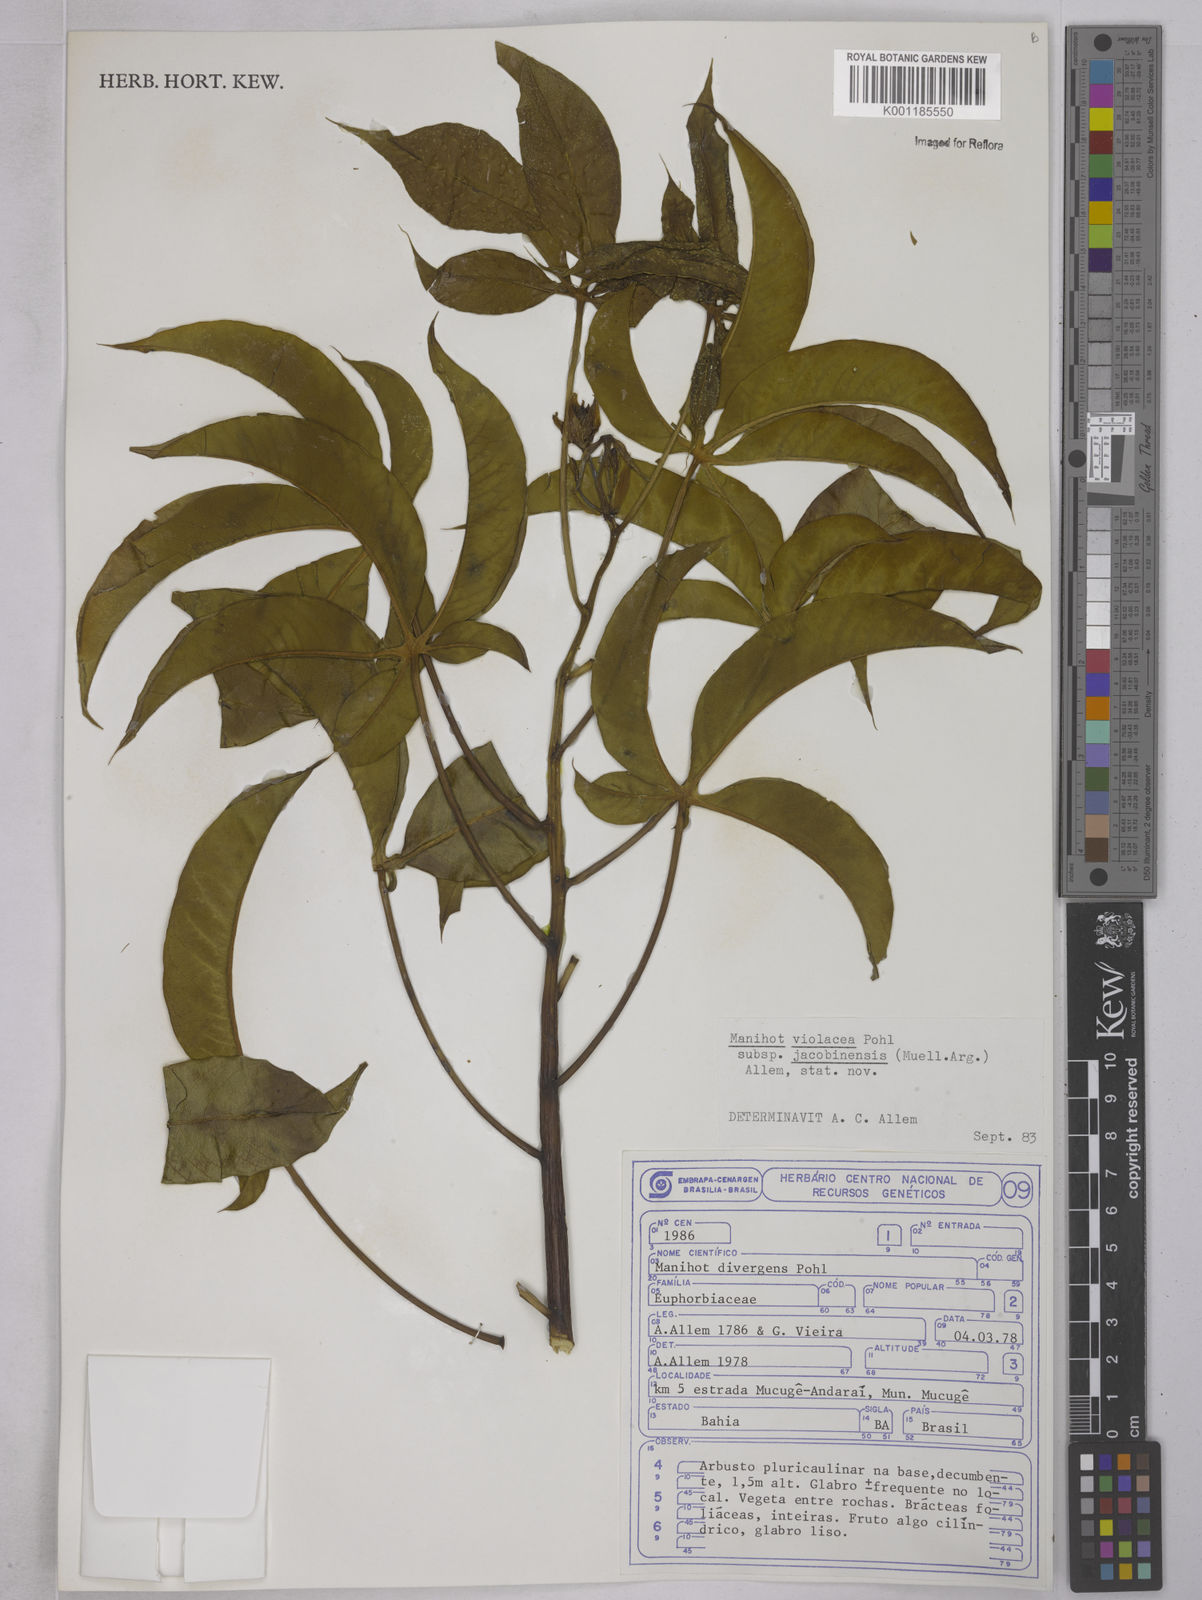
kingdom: Plantae
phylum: Tracheophyta
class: Magnoliopsida
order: Malpighiales
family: Euphorbiaceae
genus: Manihot
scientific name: Manihot
